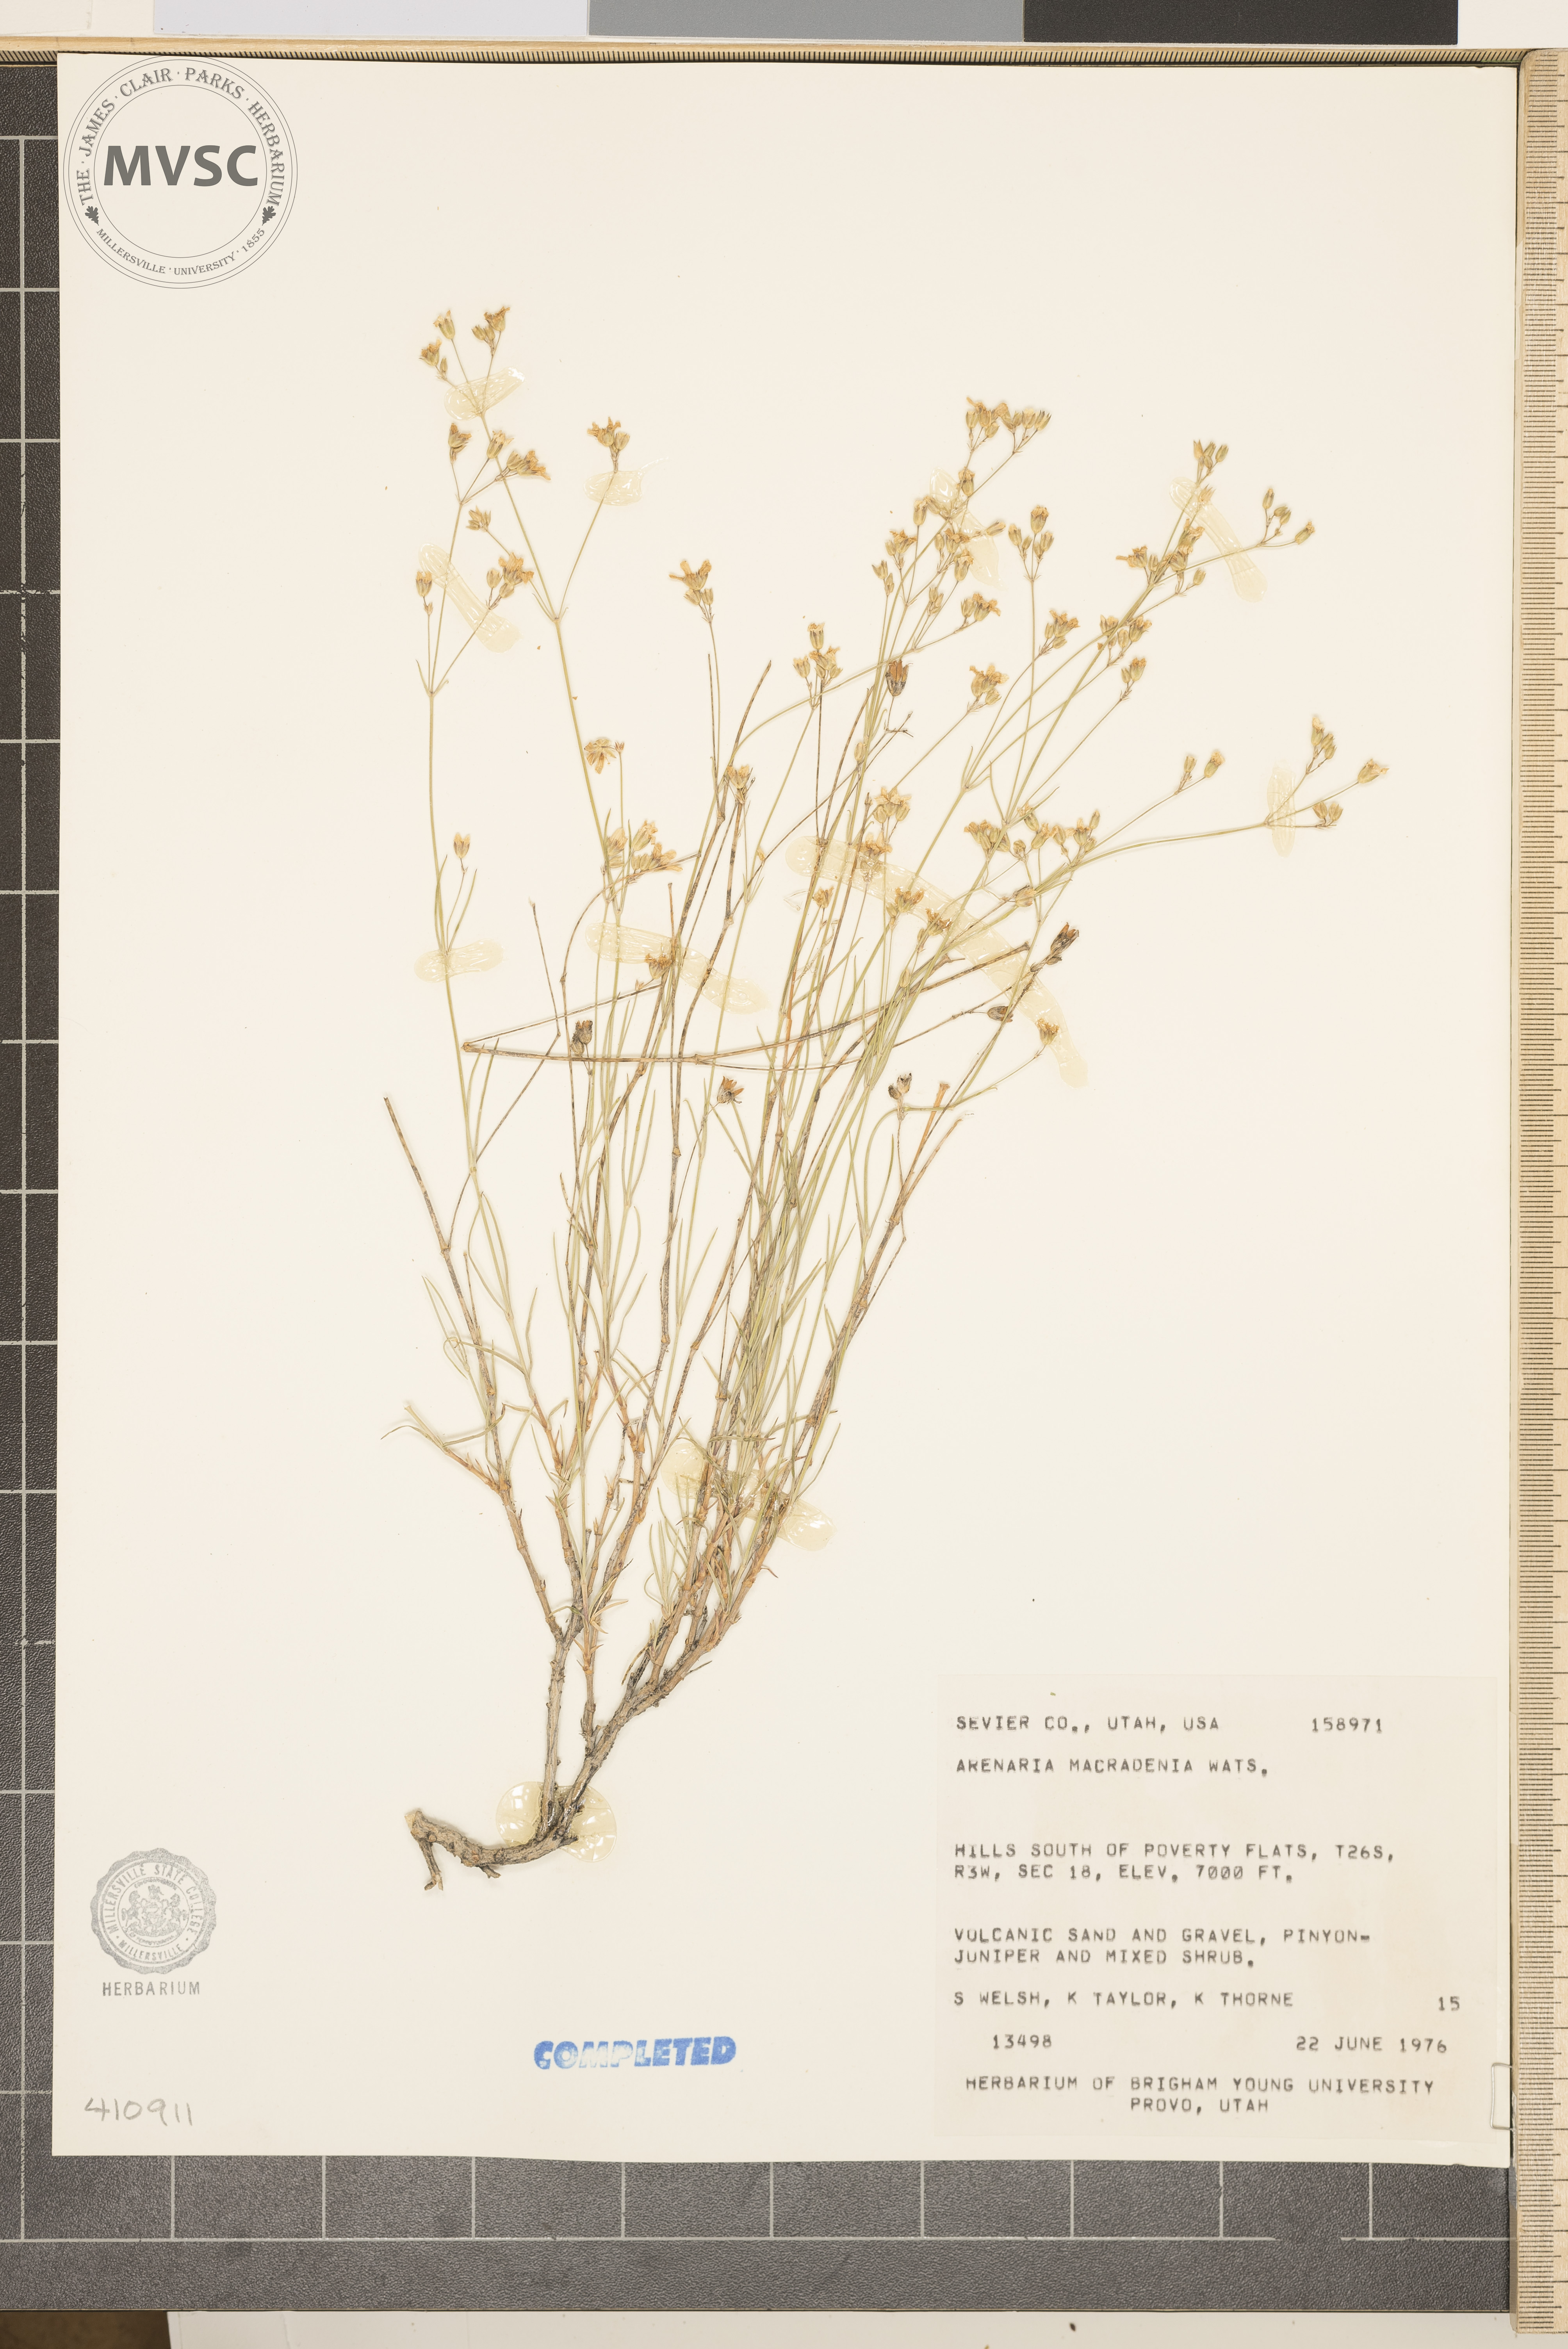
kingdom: Plantae
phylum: Tracheophyta
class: Magnoliopsida
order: Caryophyllales
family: Caryophyllaceae
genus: Eremogone
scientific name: Eremogone macradenia
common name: Mohave sandwort
